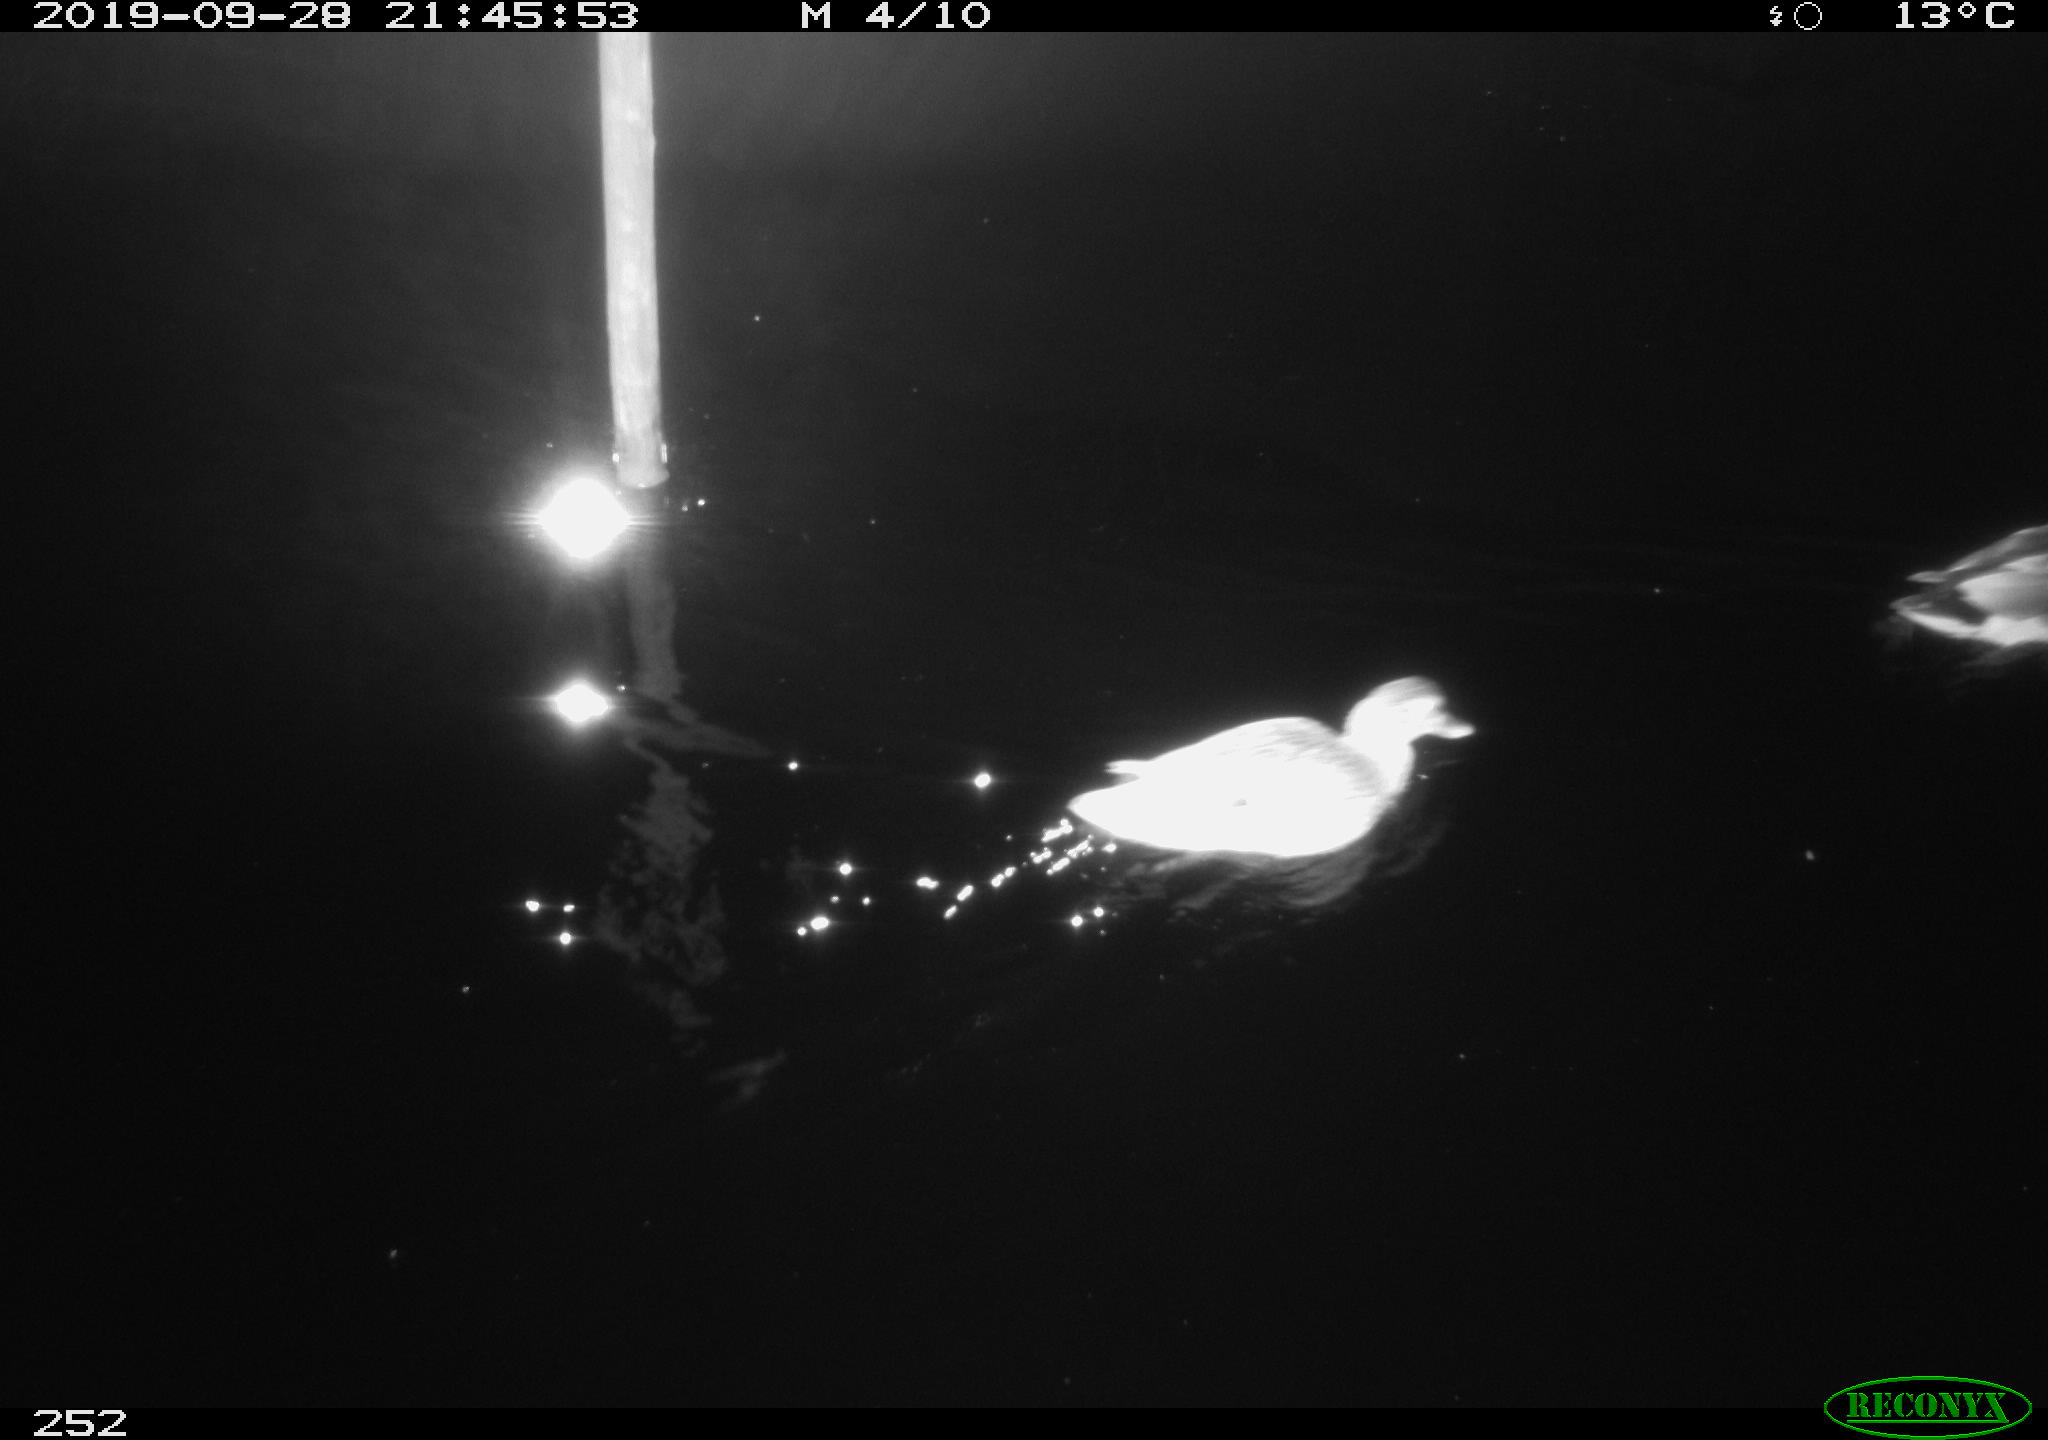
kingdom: Animalia
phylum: Chordata
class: Aves
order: Anseriformes
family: Anatidae
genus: Anas
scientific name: Anas platyrhynchos
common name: Mallard
